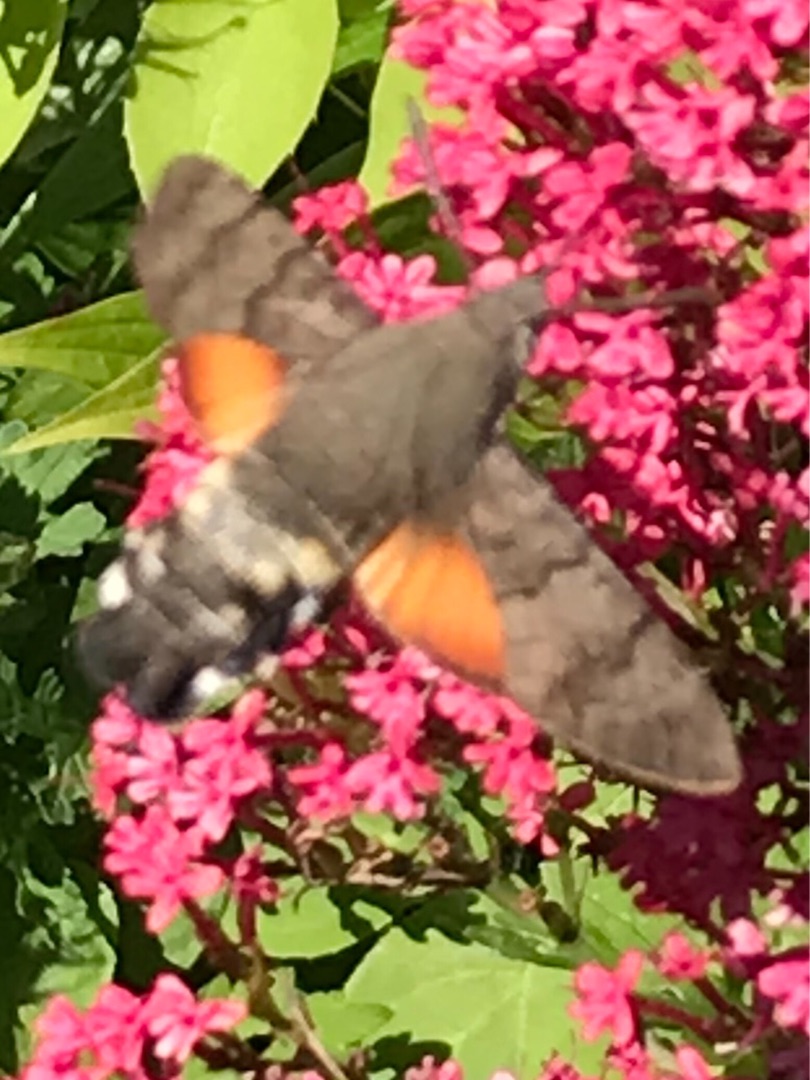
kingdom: Animalia
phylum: Arthropoda
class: Insecta
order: Lepidoptera
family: Sphingidae
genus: Macroglossum
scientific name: Macroglossum stellatarum
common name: Duehale
